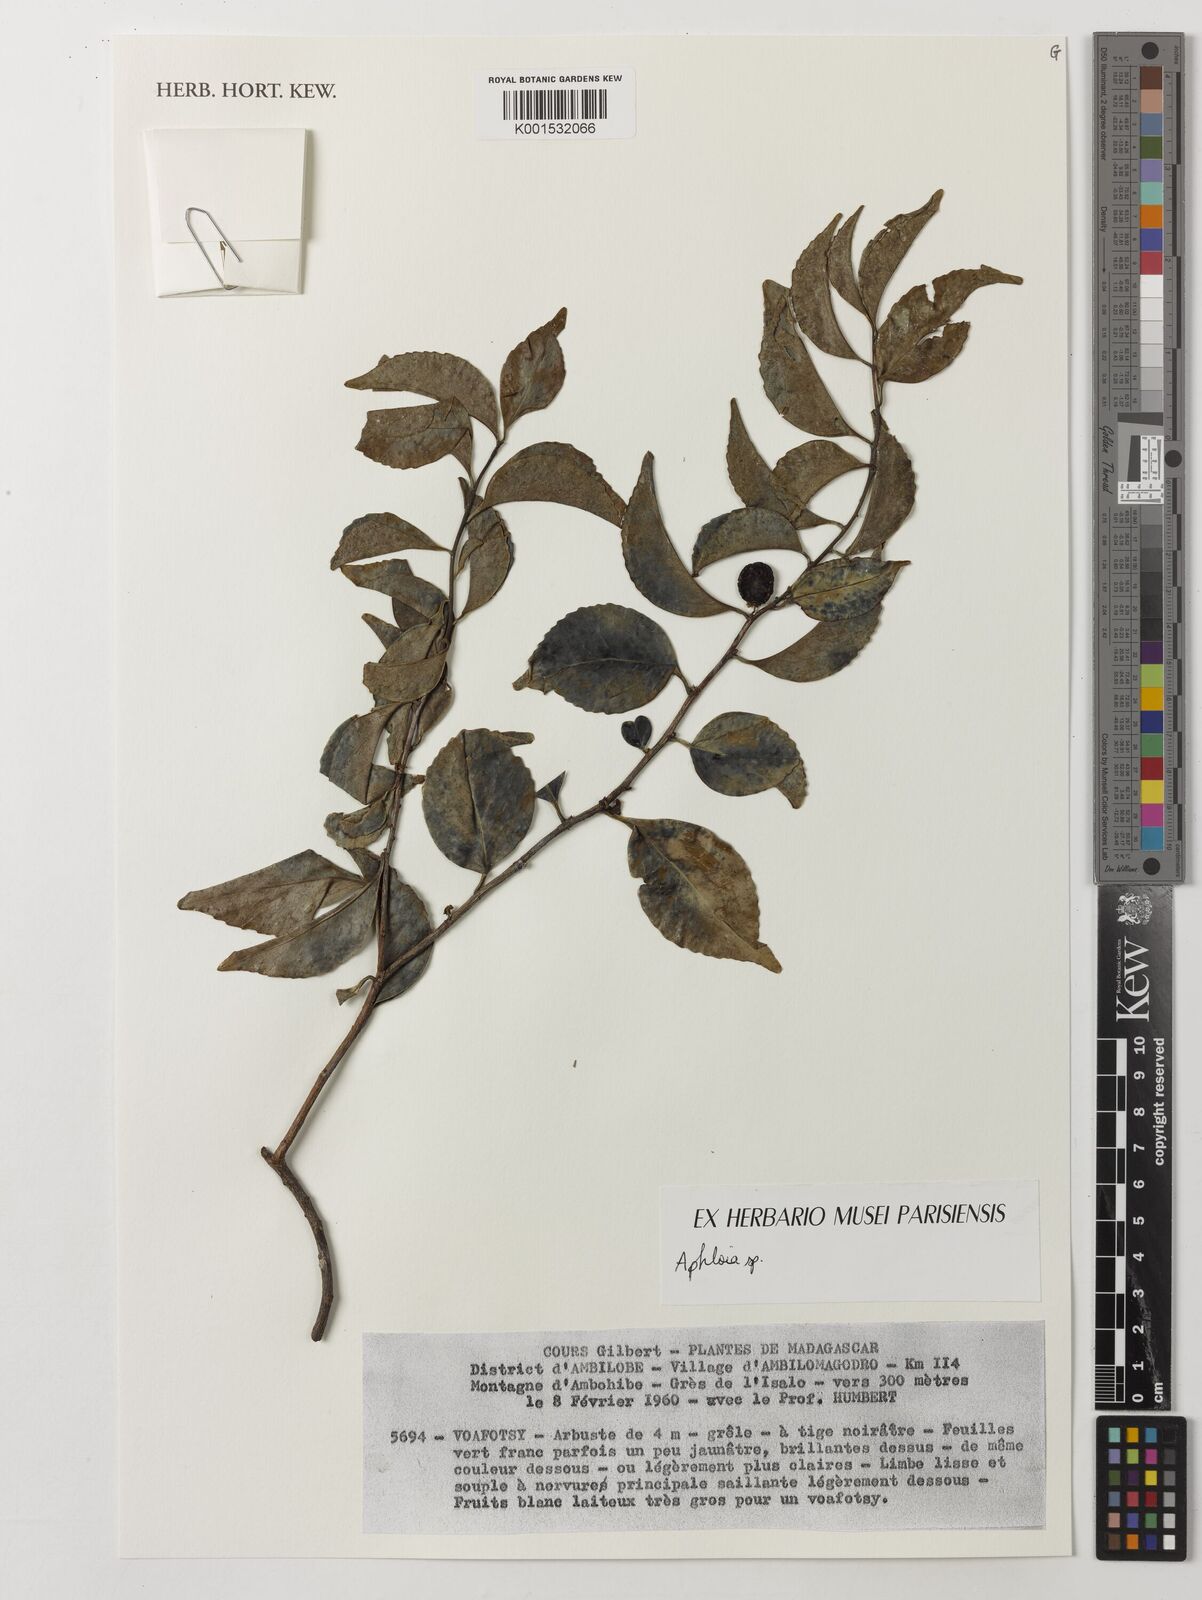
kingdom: Plantae
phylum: Tracheophyta
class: Magnoliopsida
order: Crossosomatales
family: Aphloiaceae
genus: Aphloia
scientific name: Aphloia
